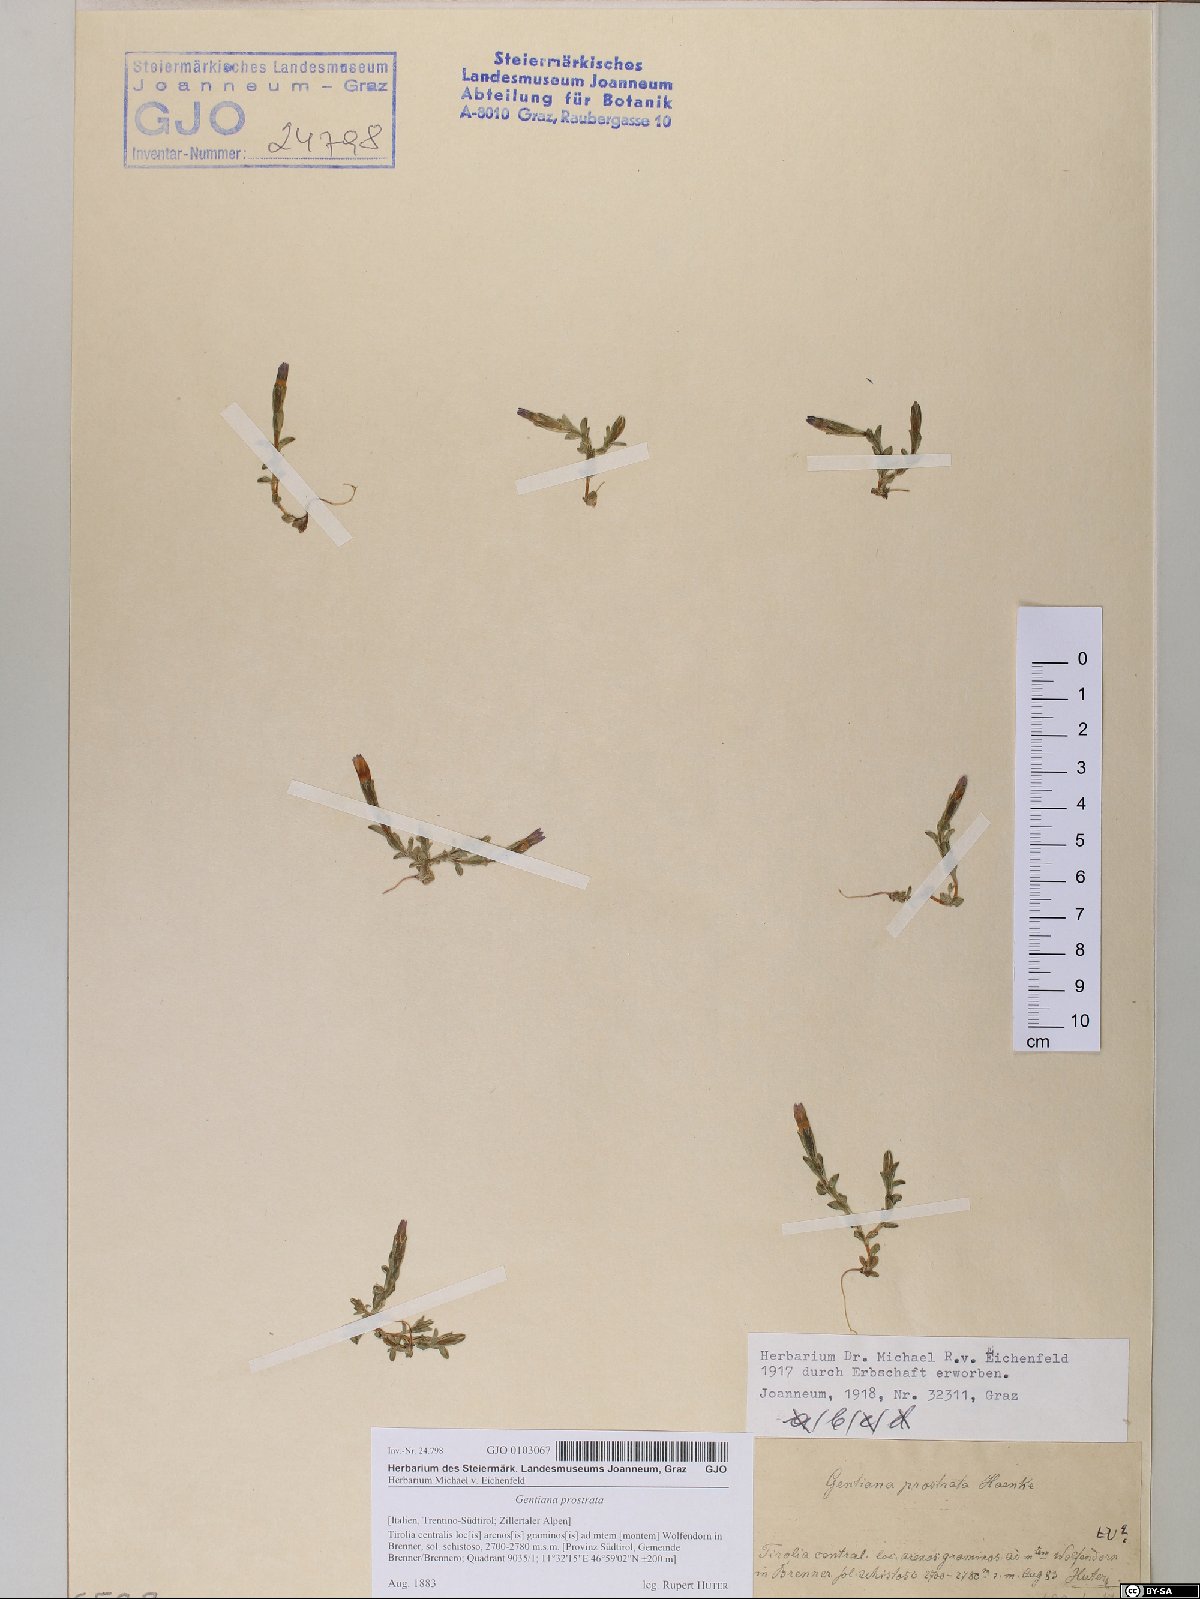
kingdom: Plantae
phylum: Tracheophyta
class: Magnoliopsida
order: Gentianales
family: Gentianaceae
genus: Gentiana
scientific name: Gentiana prostrata
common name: Moss gentian
